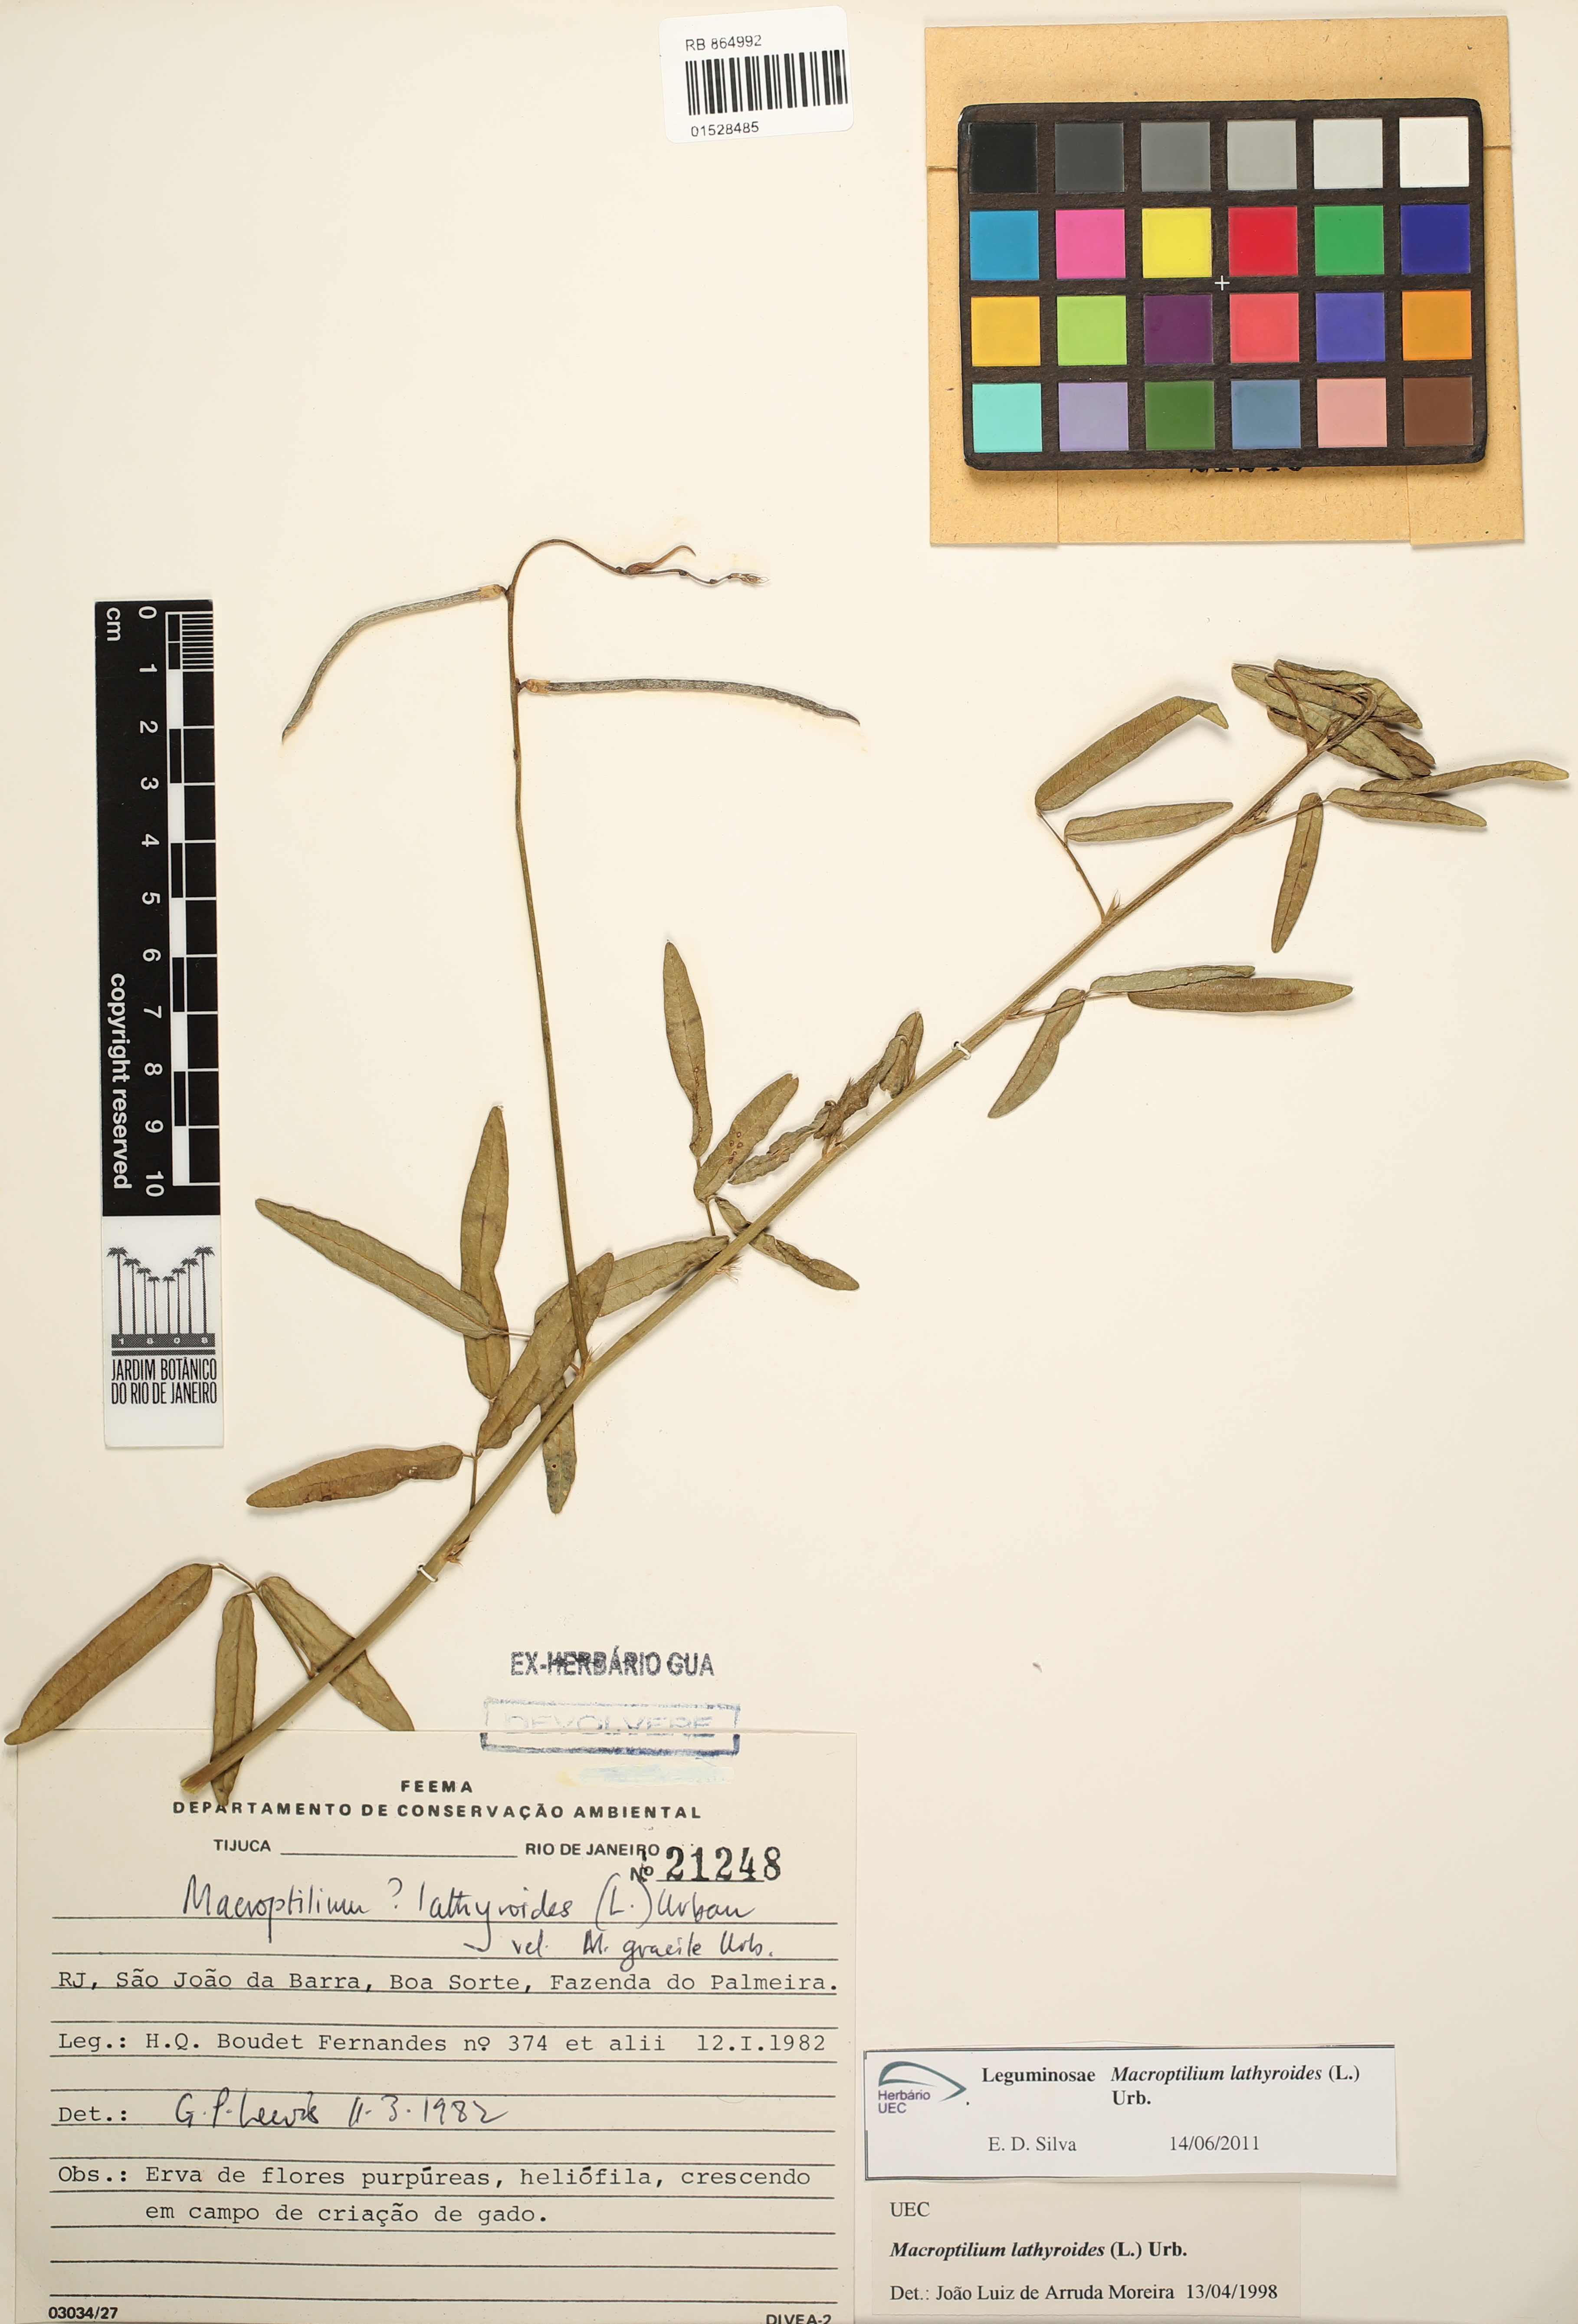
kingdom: Plantae
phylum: Tracheophyta
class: Magnoliopsida
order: Fabales
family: Fabaceae
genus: Macroptilium
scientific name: Macroptilium lathyroides
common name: Wild bushbean
